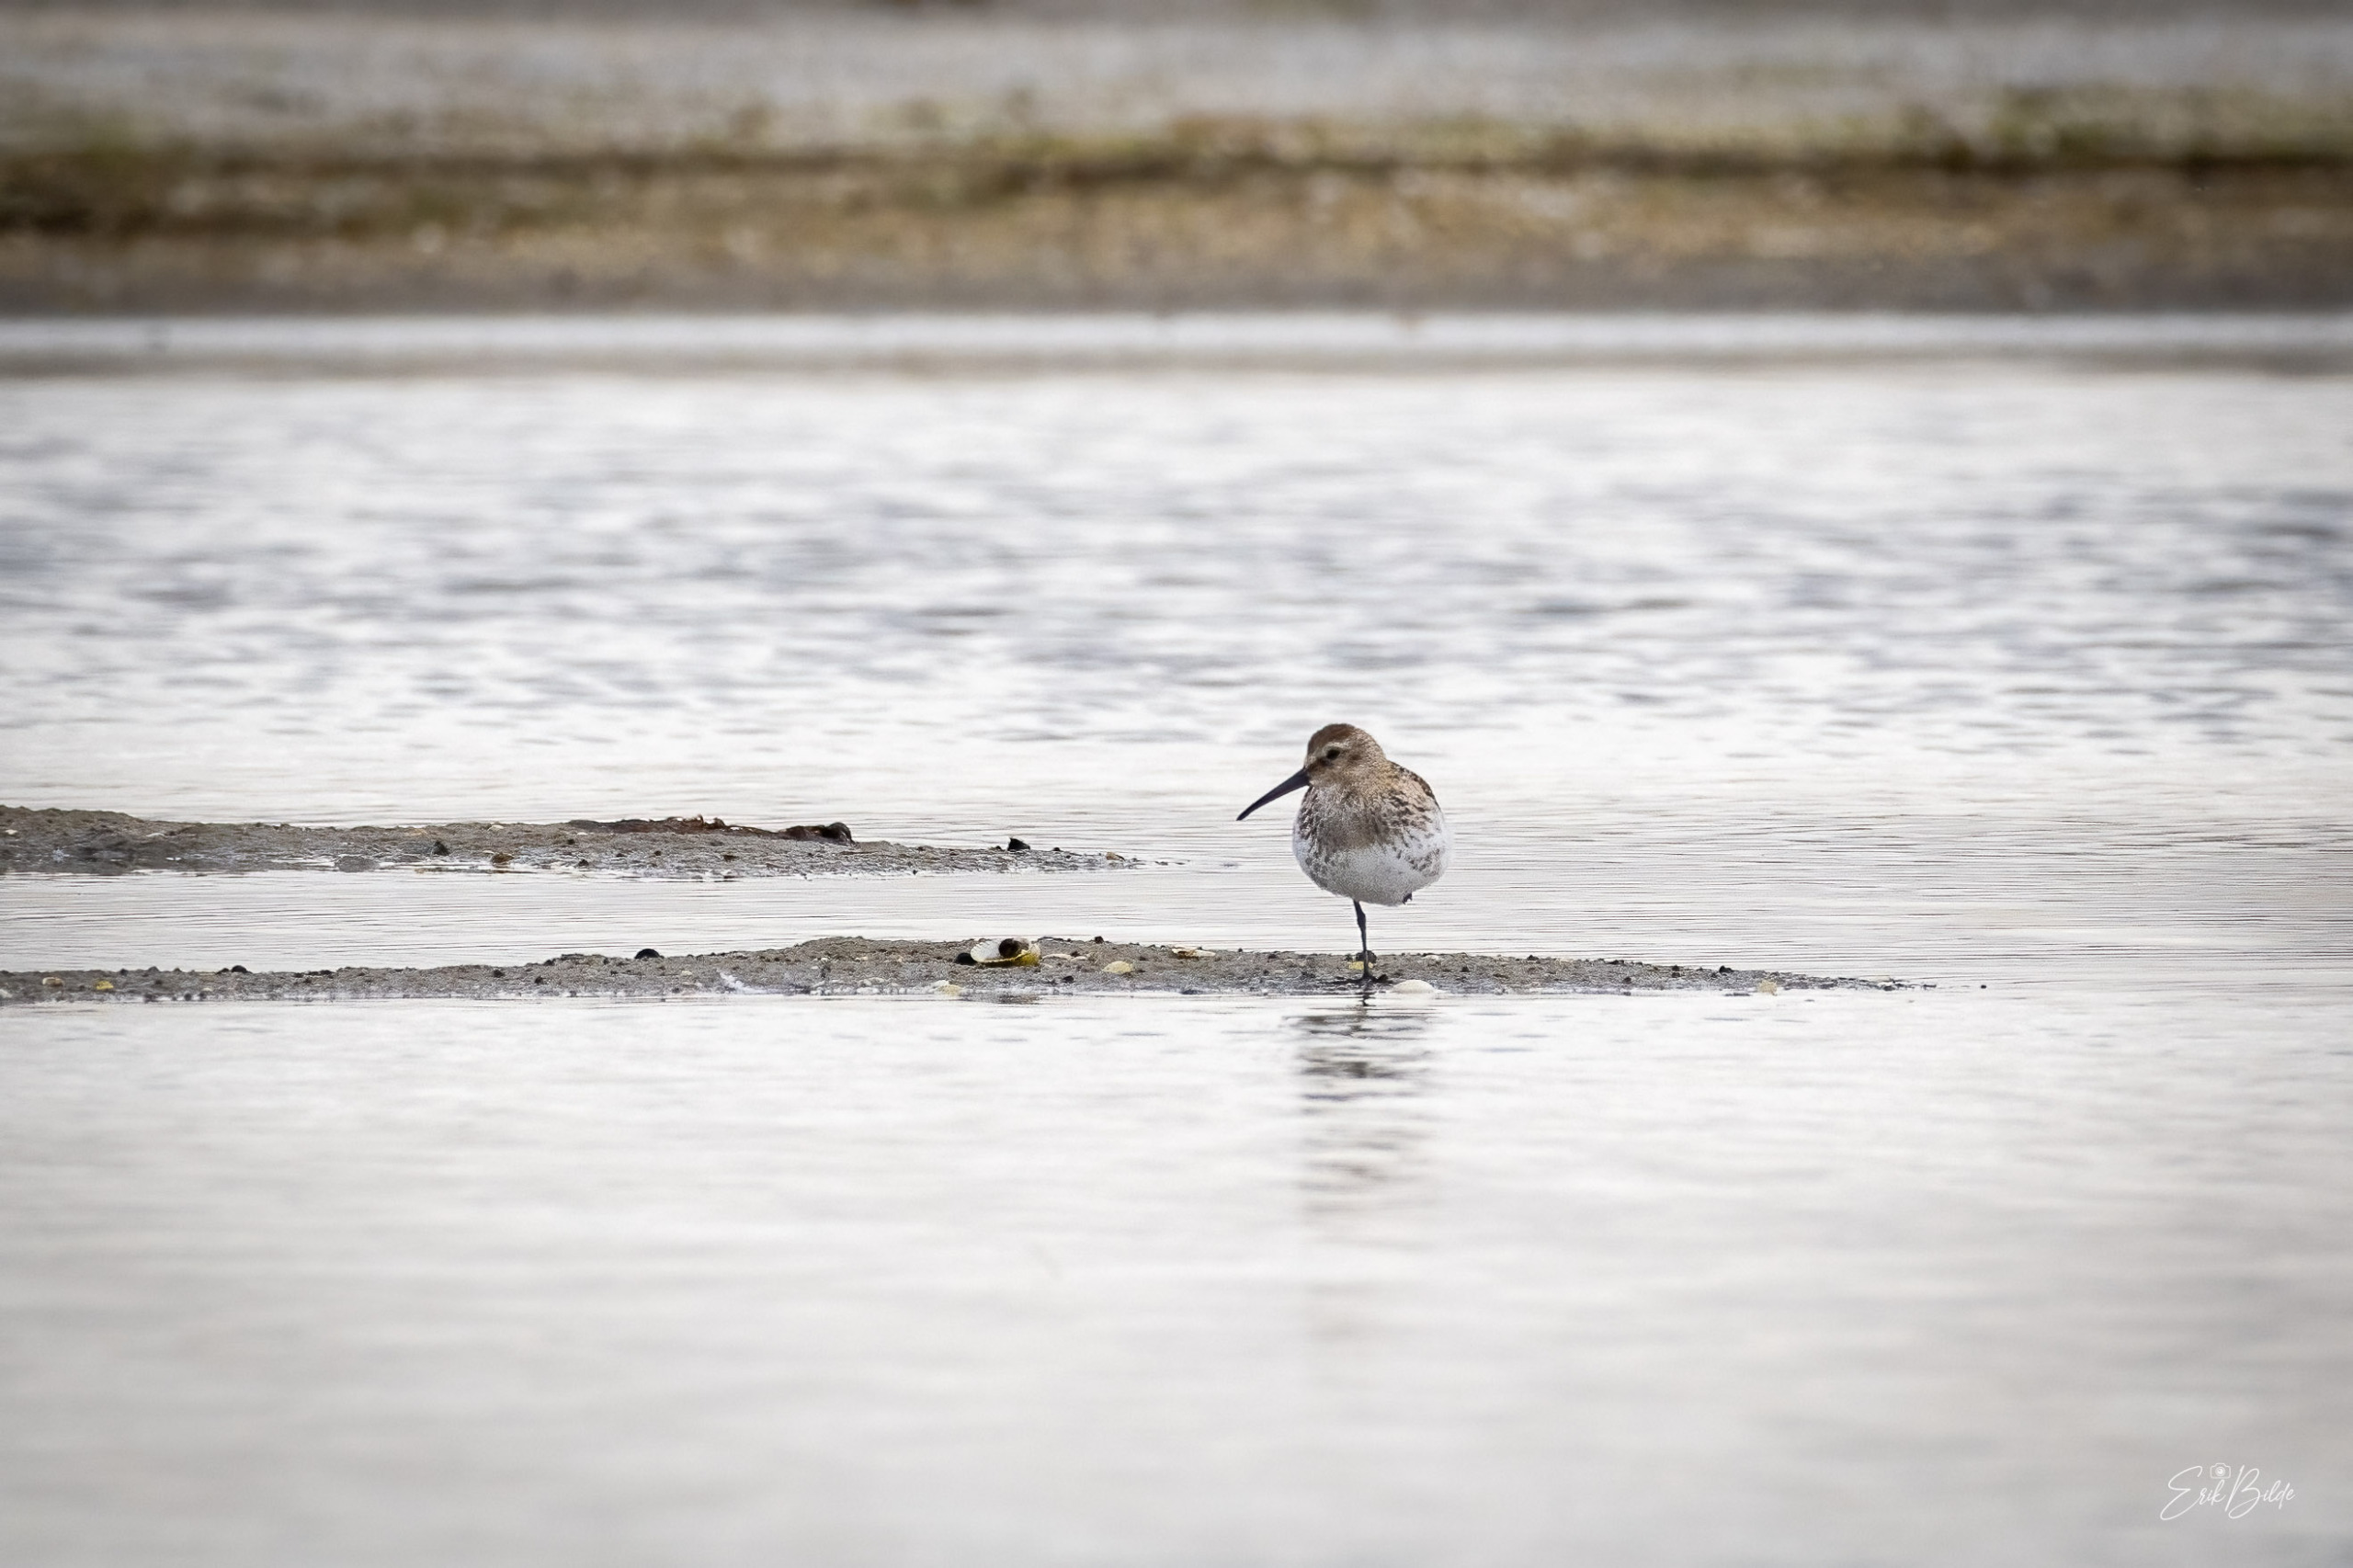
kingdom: Animalia
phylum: Chordata
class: Aves
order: Charadriiformes
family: Scolopacidae
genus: Calidris
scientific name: Calidris alpina
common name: Almindelig ryle
